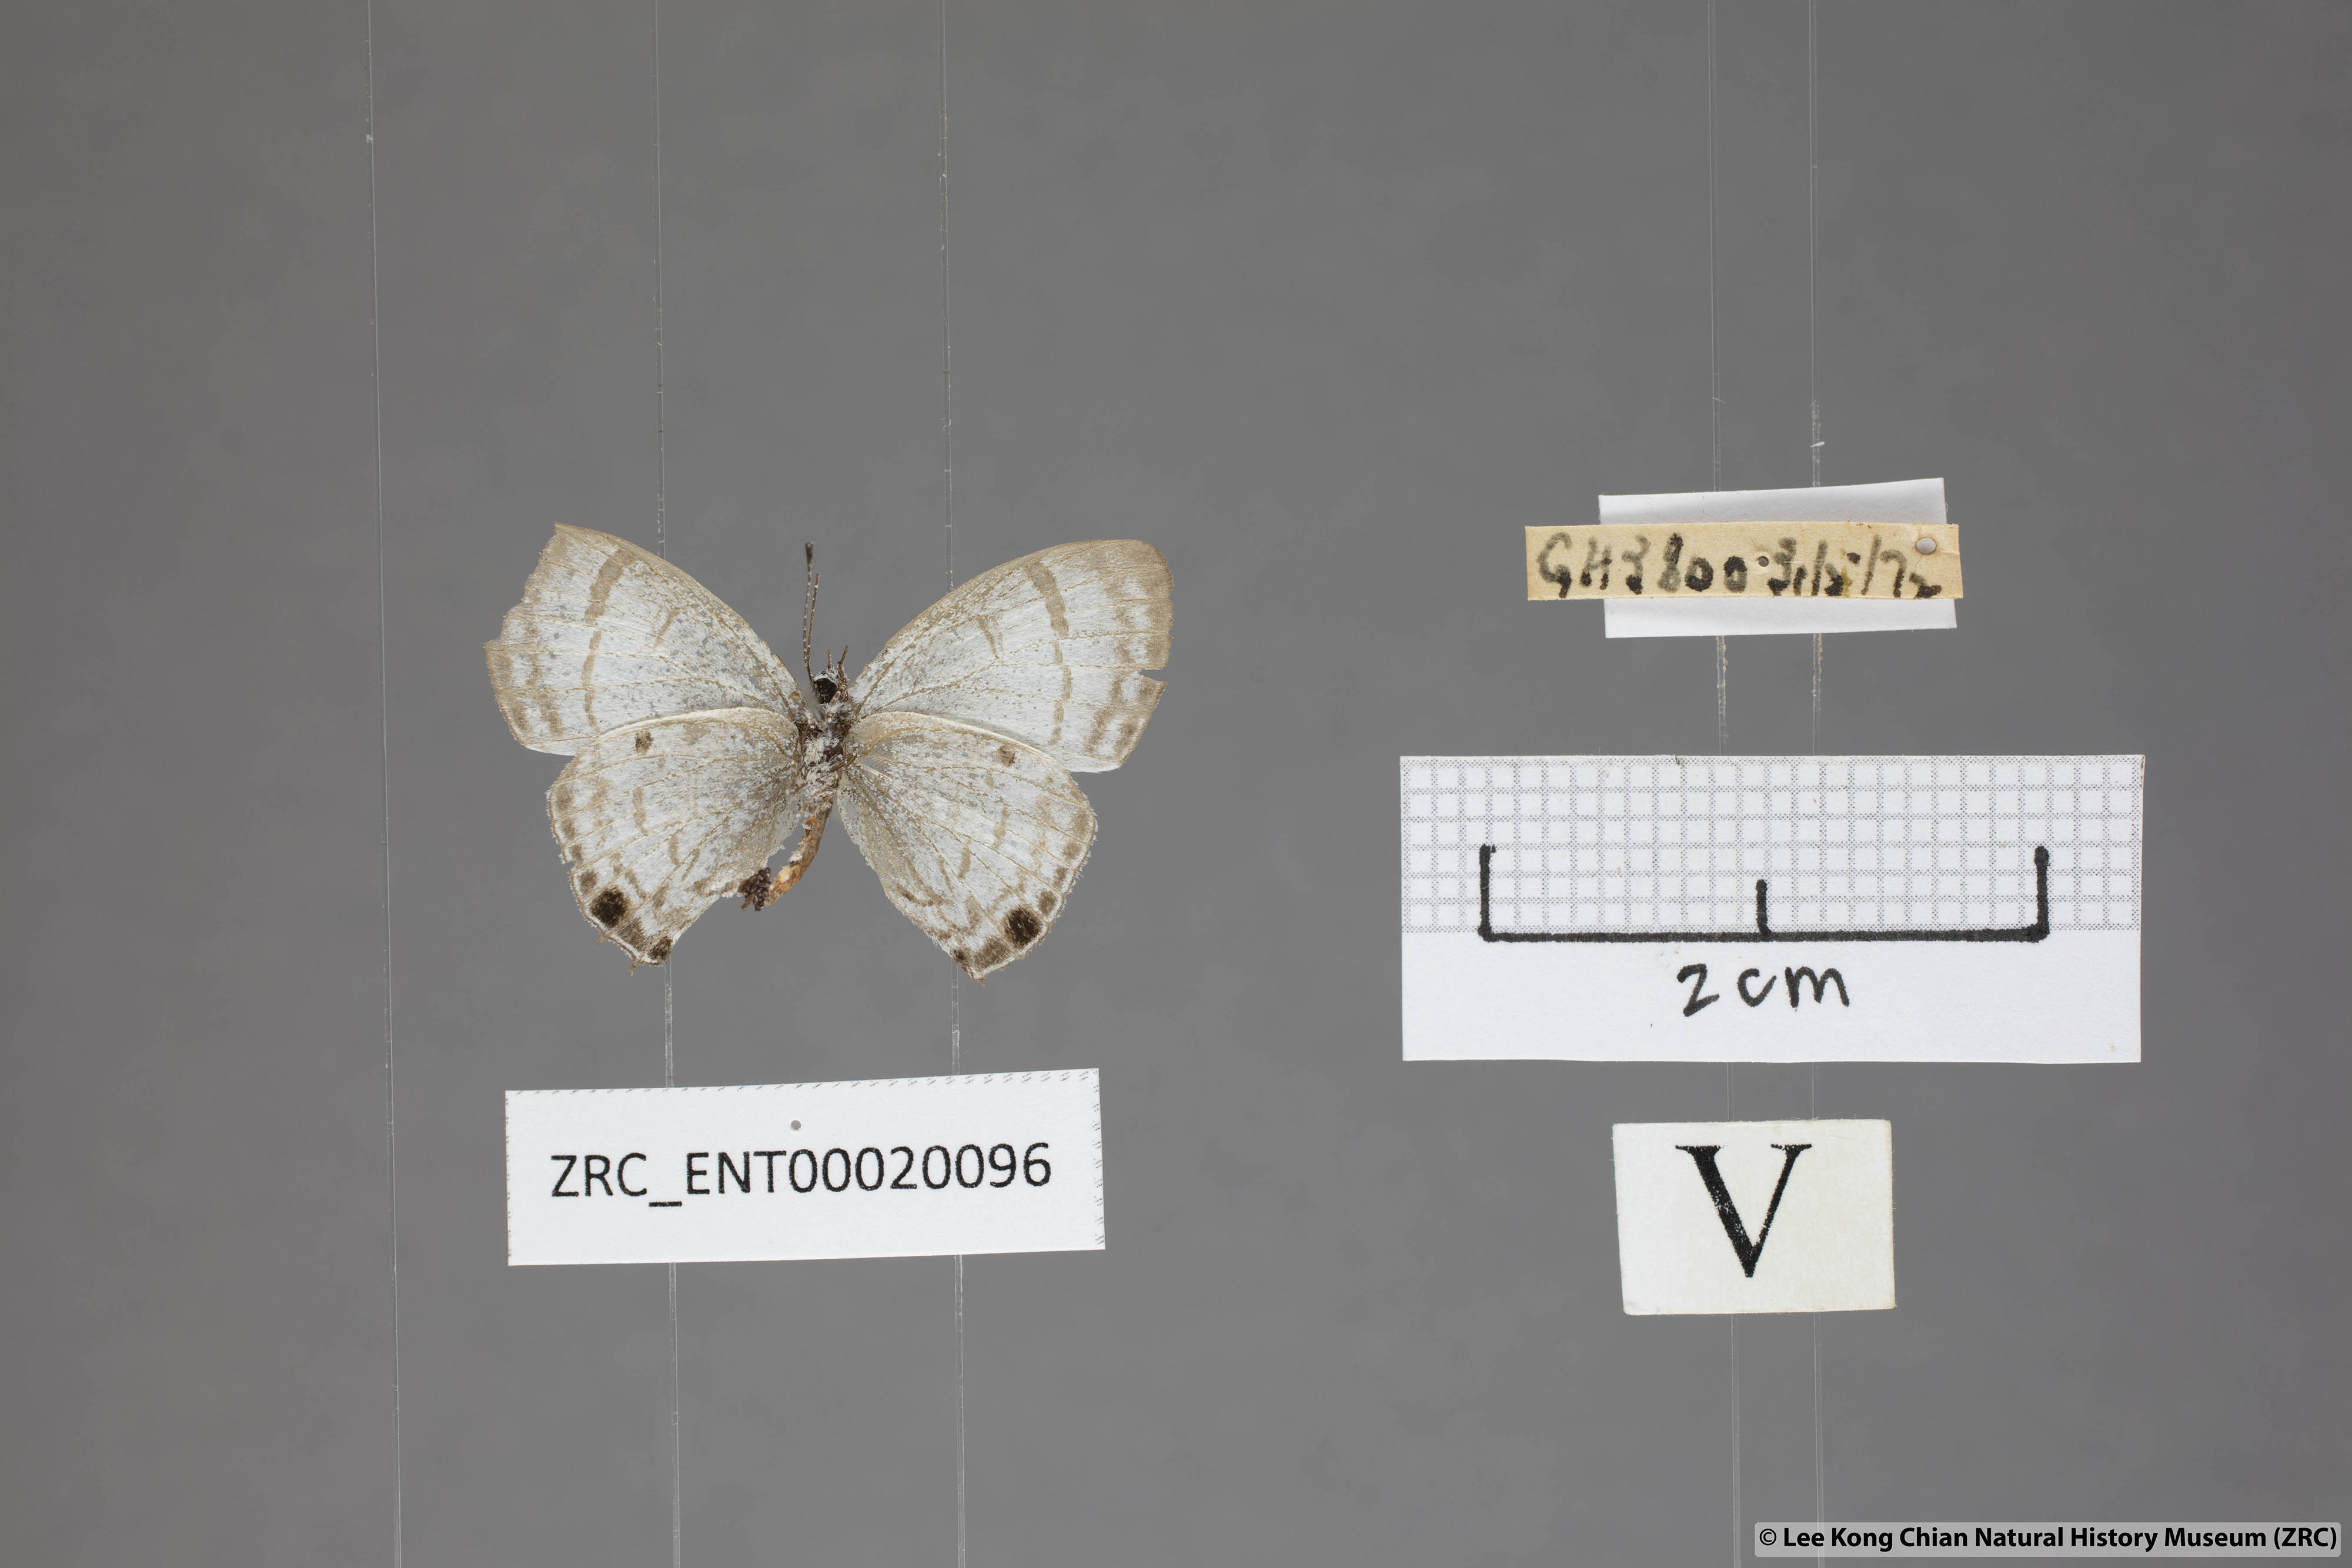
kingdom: Animalia
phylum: Arthropoda
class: Insecta
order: Lepidoptera
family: Lycaenidae
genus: Chliaria
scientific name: Chliaria kina
